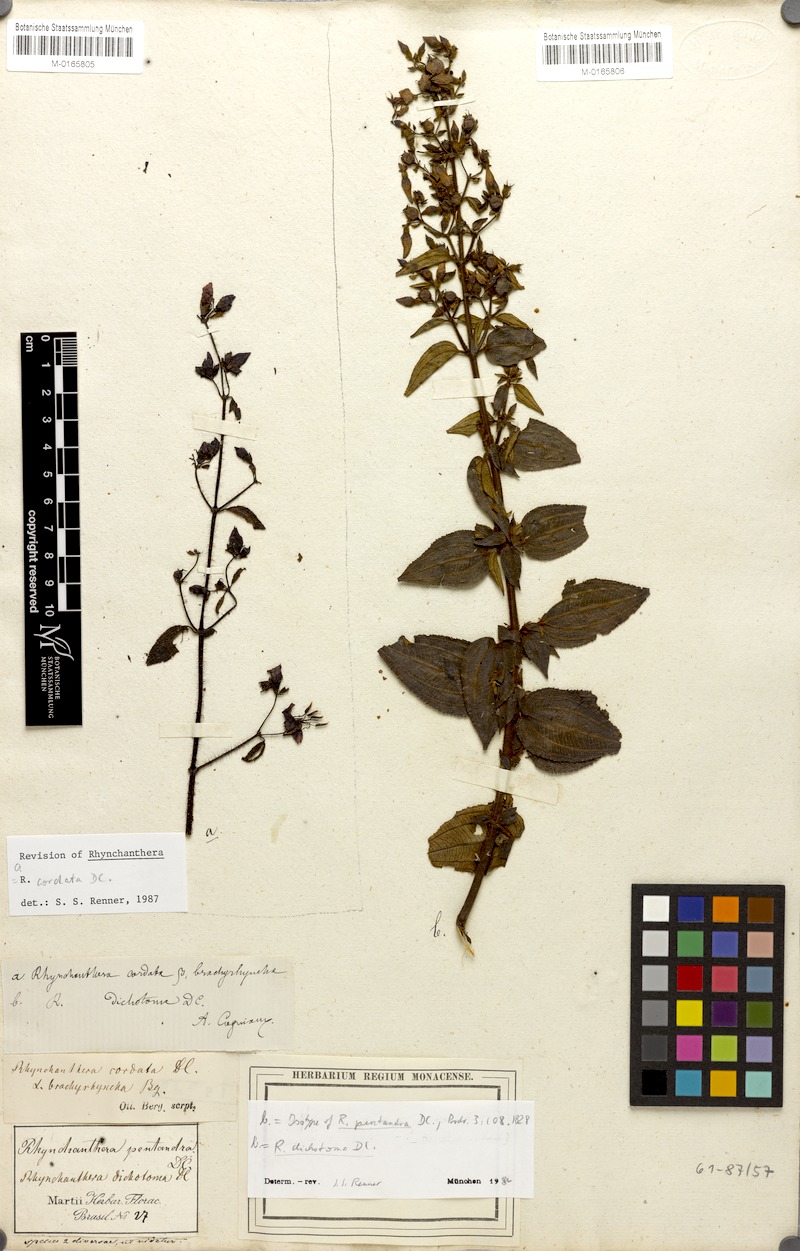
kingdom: Plantae
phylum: Tracheophyta
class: Magnoliopsida
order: Myrtales
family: Melastomataceae
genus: Rhynchanthera
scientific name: Rhynchanthera cordata
